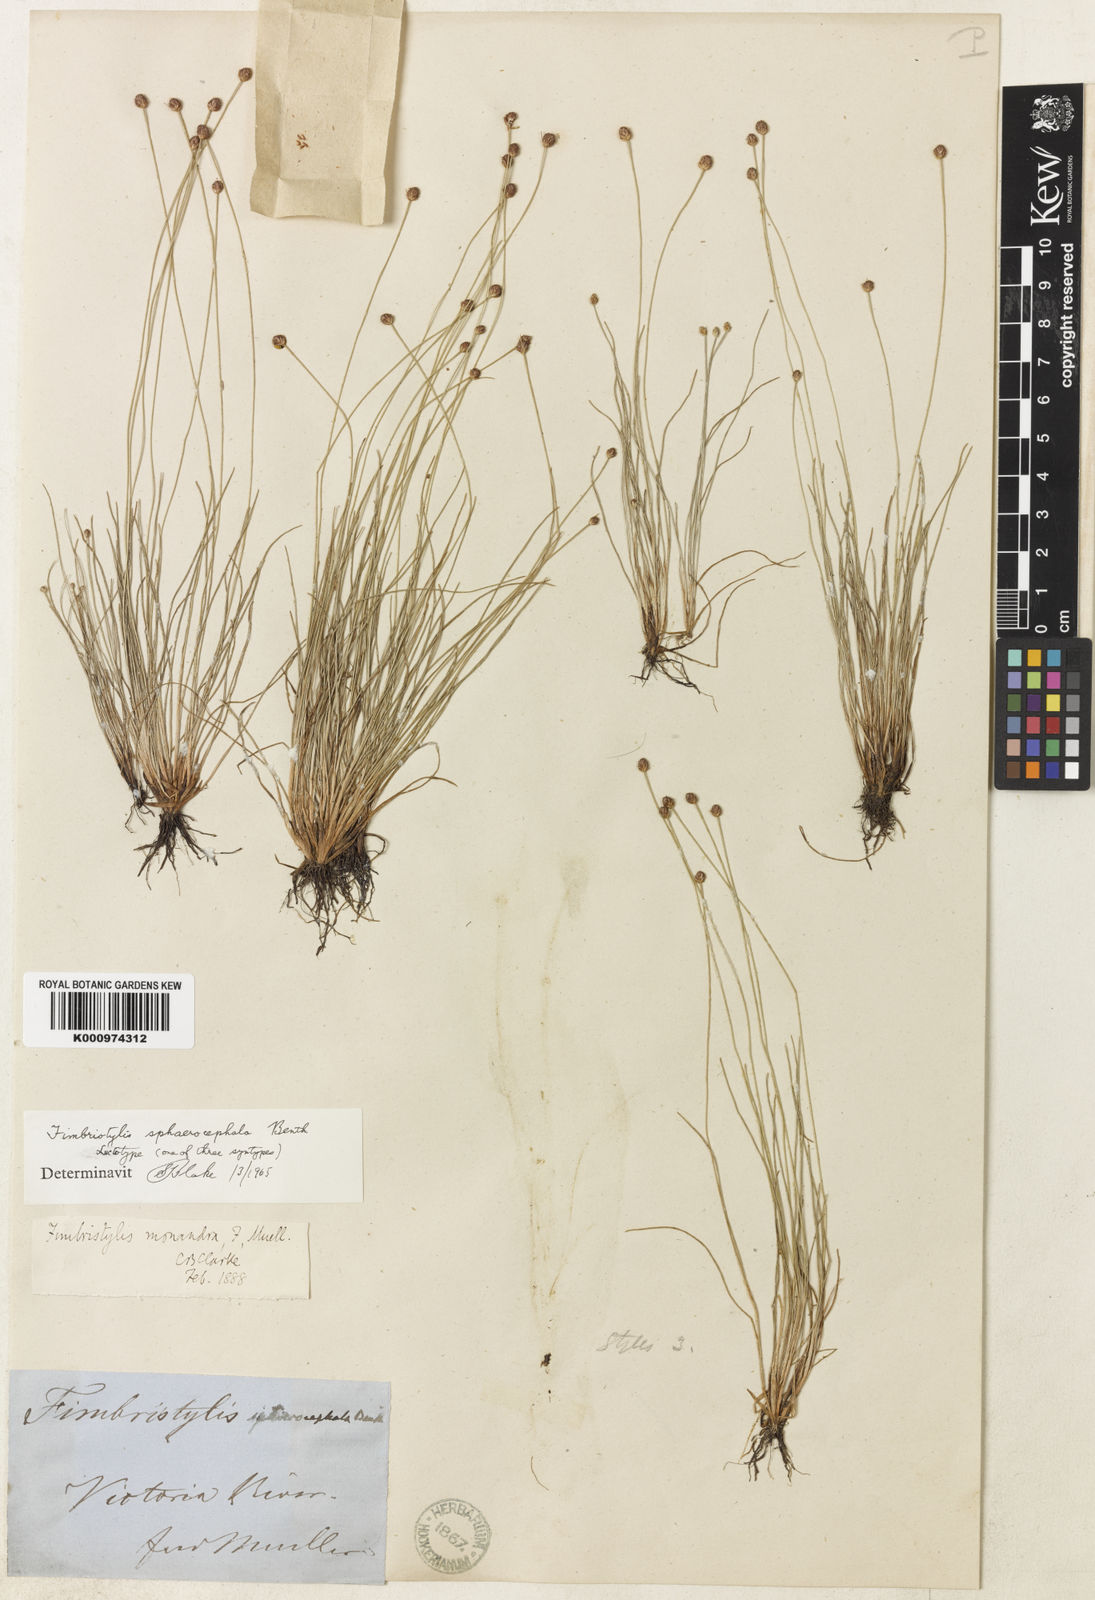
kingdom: Plantae
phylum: Tracheophyta
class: Liliopsida
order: Poales
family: Cyperaceae
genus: Fimbristylis
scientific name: Fimbristylis sphaerocephala
